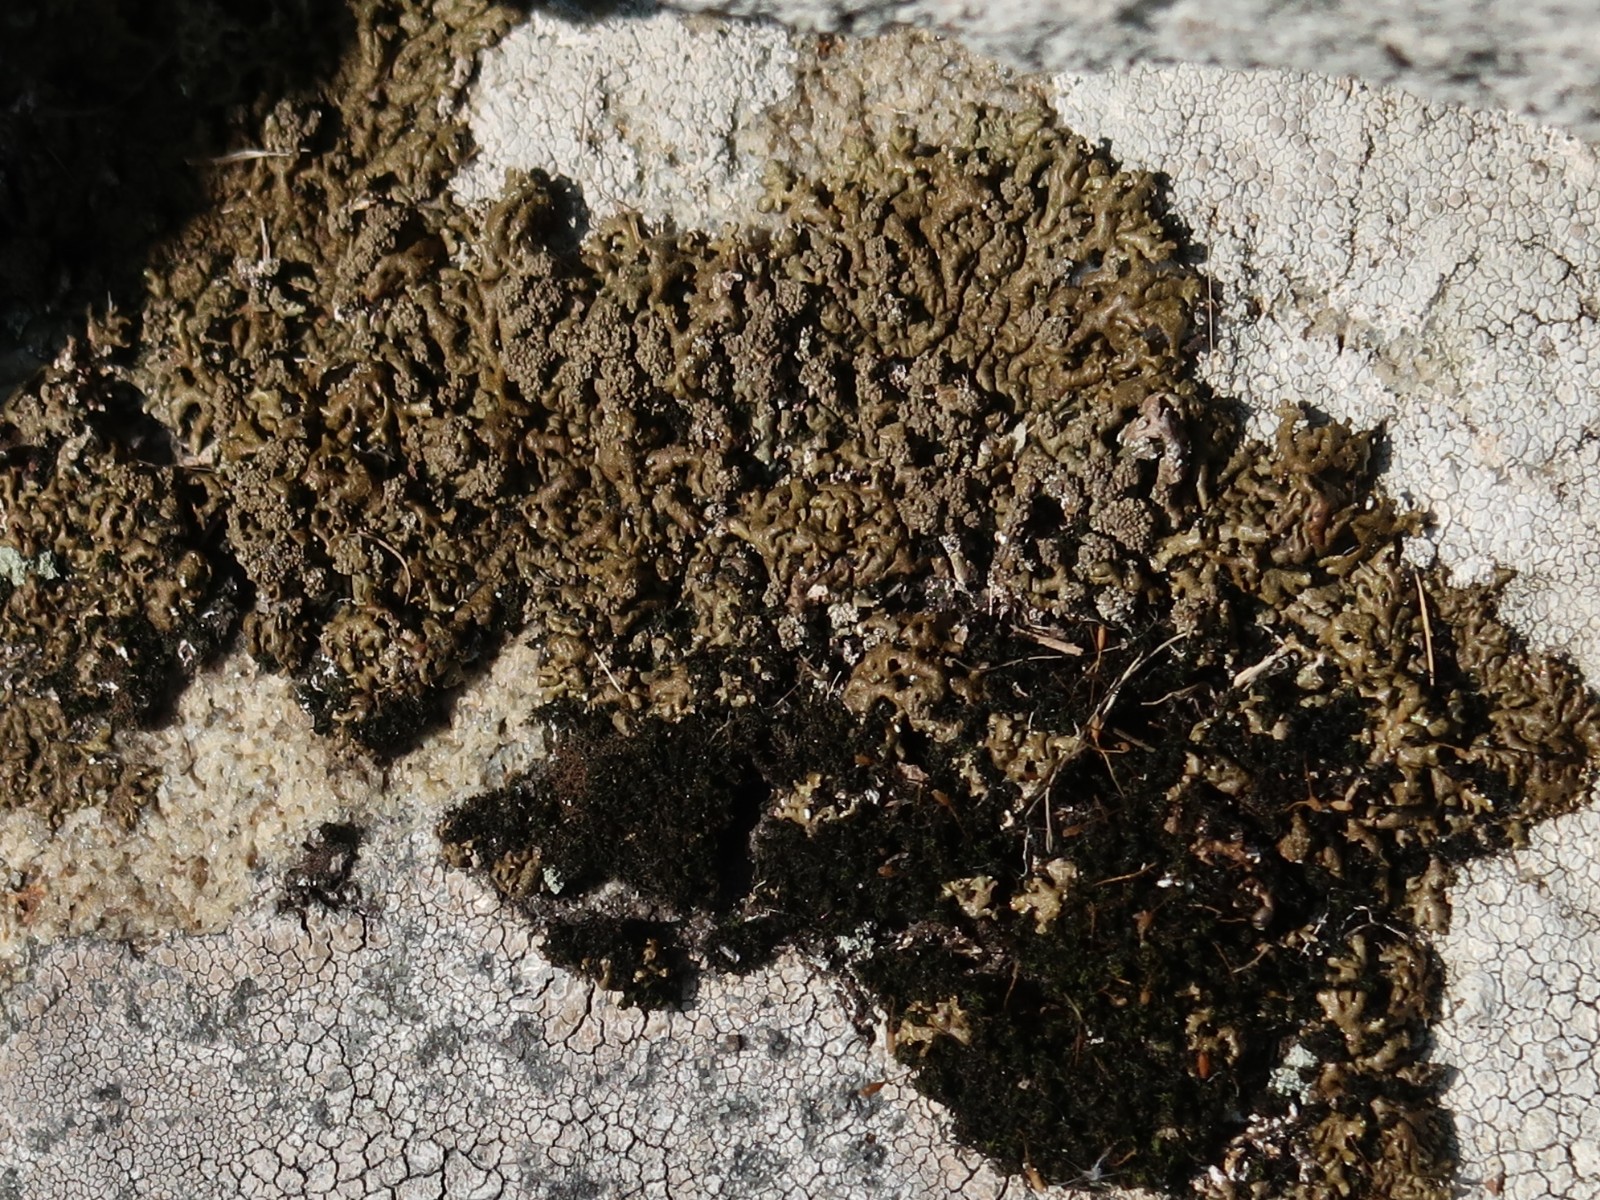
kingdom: Fungi
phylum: Ascomycota
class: Lecanoromycetes
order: Lecanorales
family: Parmeliaceae
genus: Xanthoparmelia
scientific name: Xanthoparmelia loxodes
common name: knudret skållav
